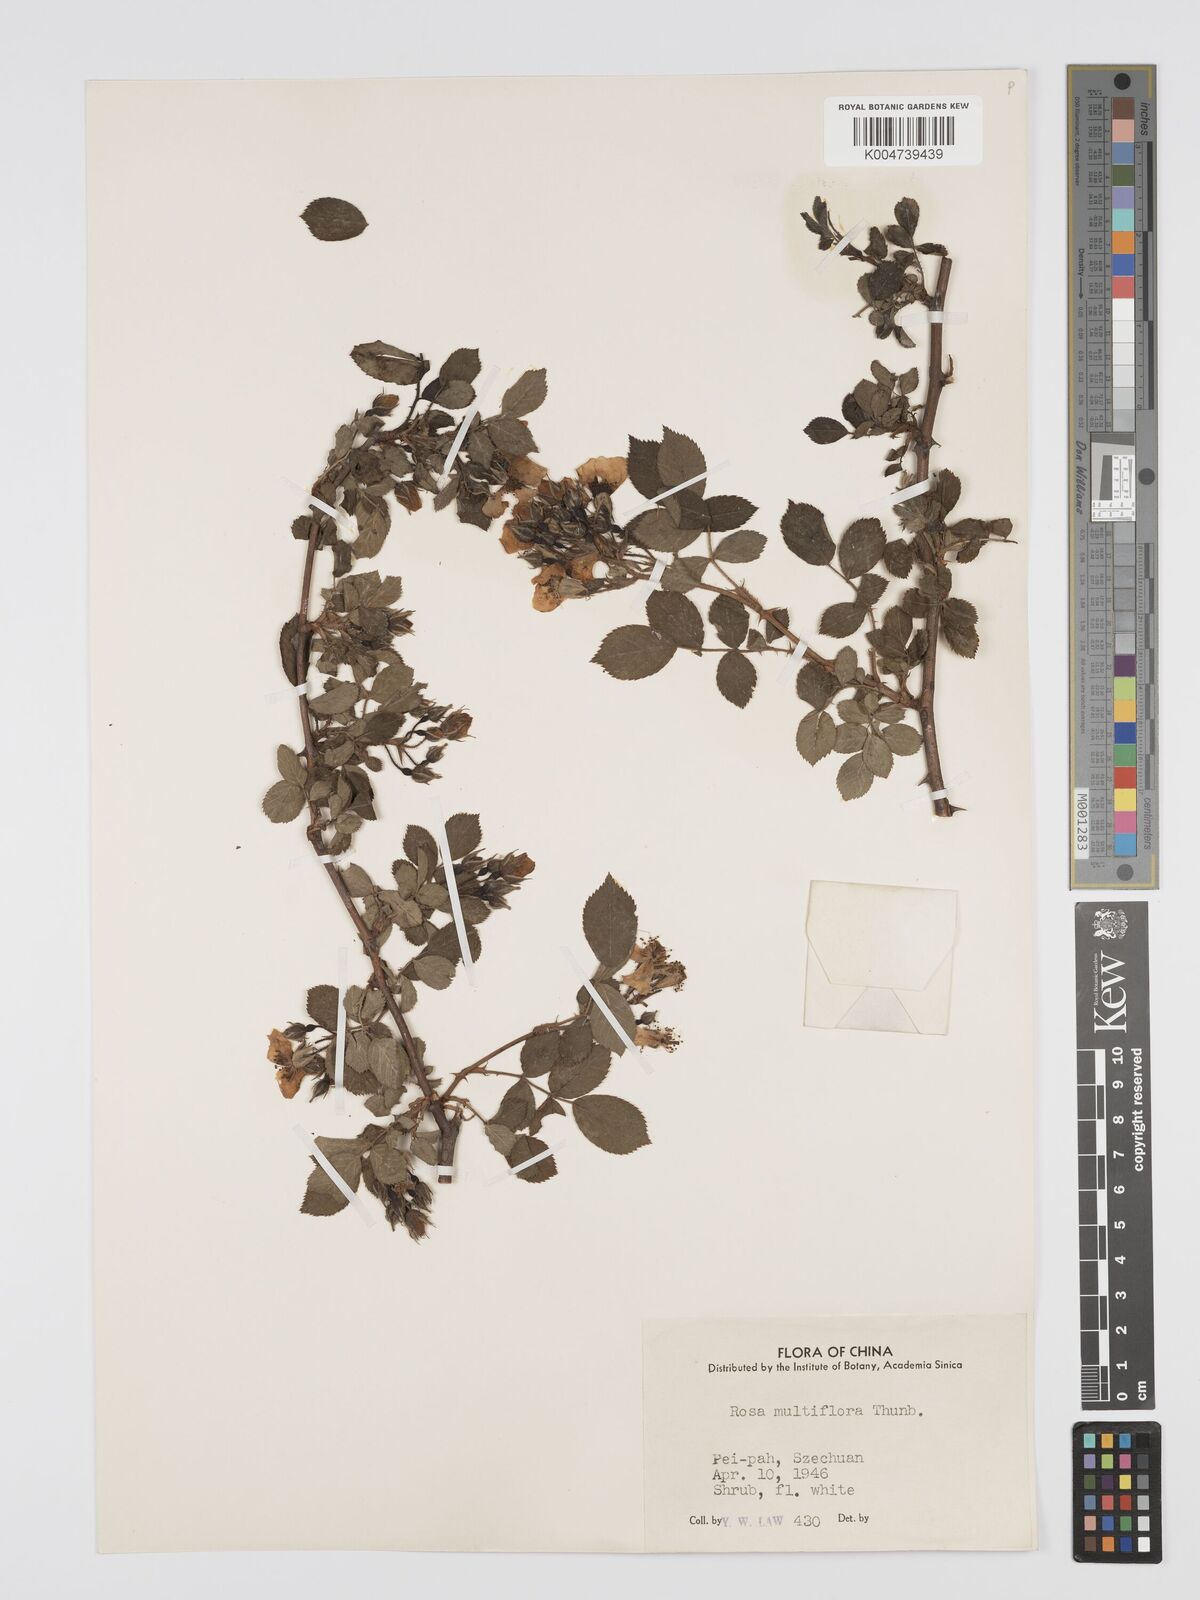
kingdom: Plantae
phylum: Tracheophyta
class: Magnoliopsida
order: Rosales
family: Rosaceae
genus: Rosa
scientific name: Rosa
